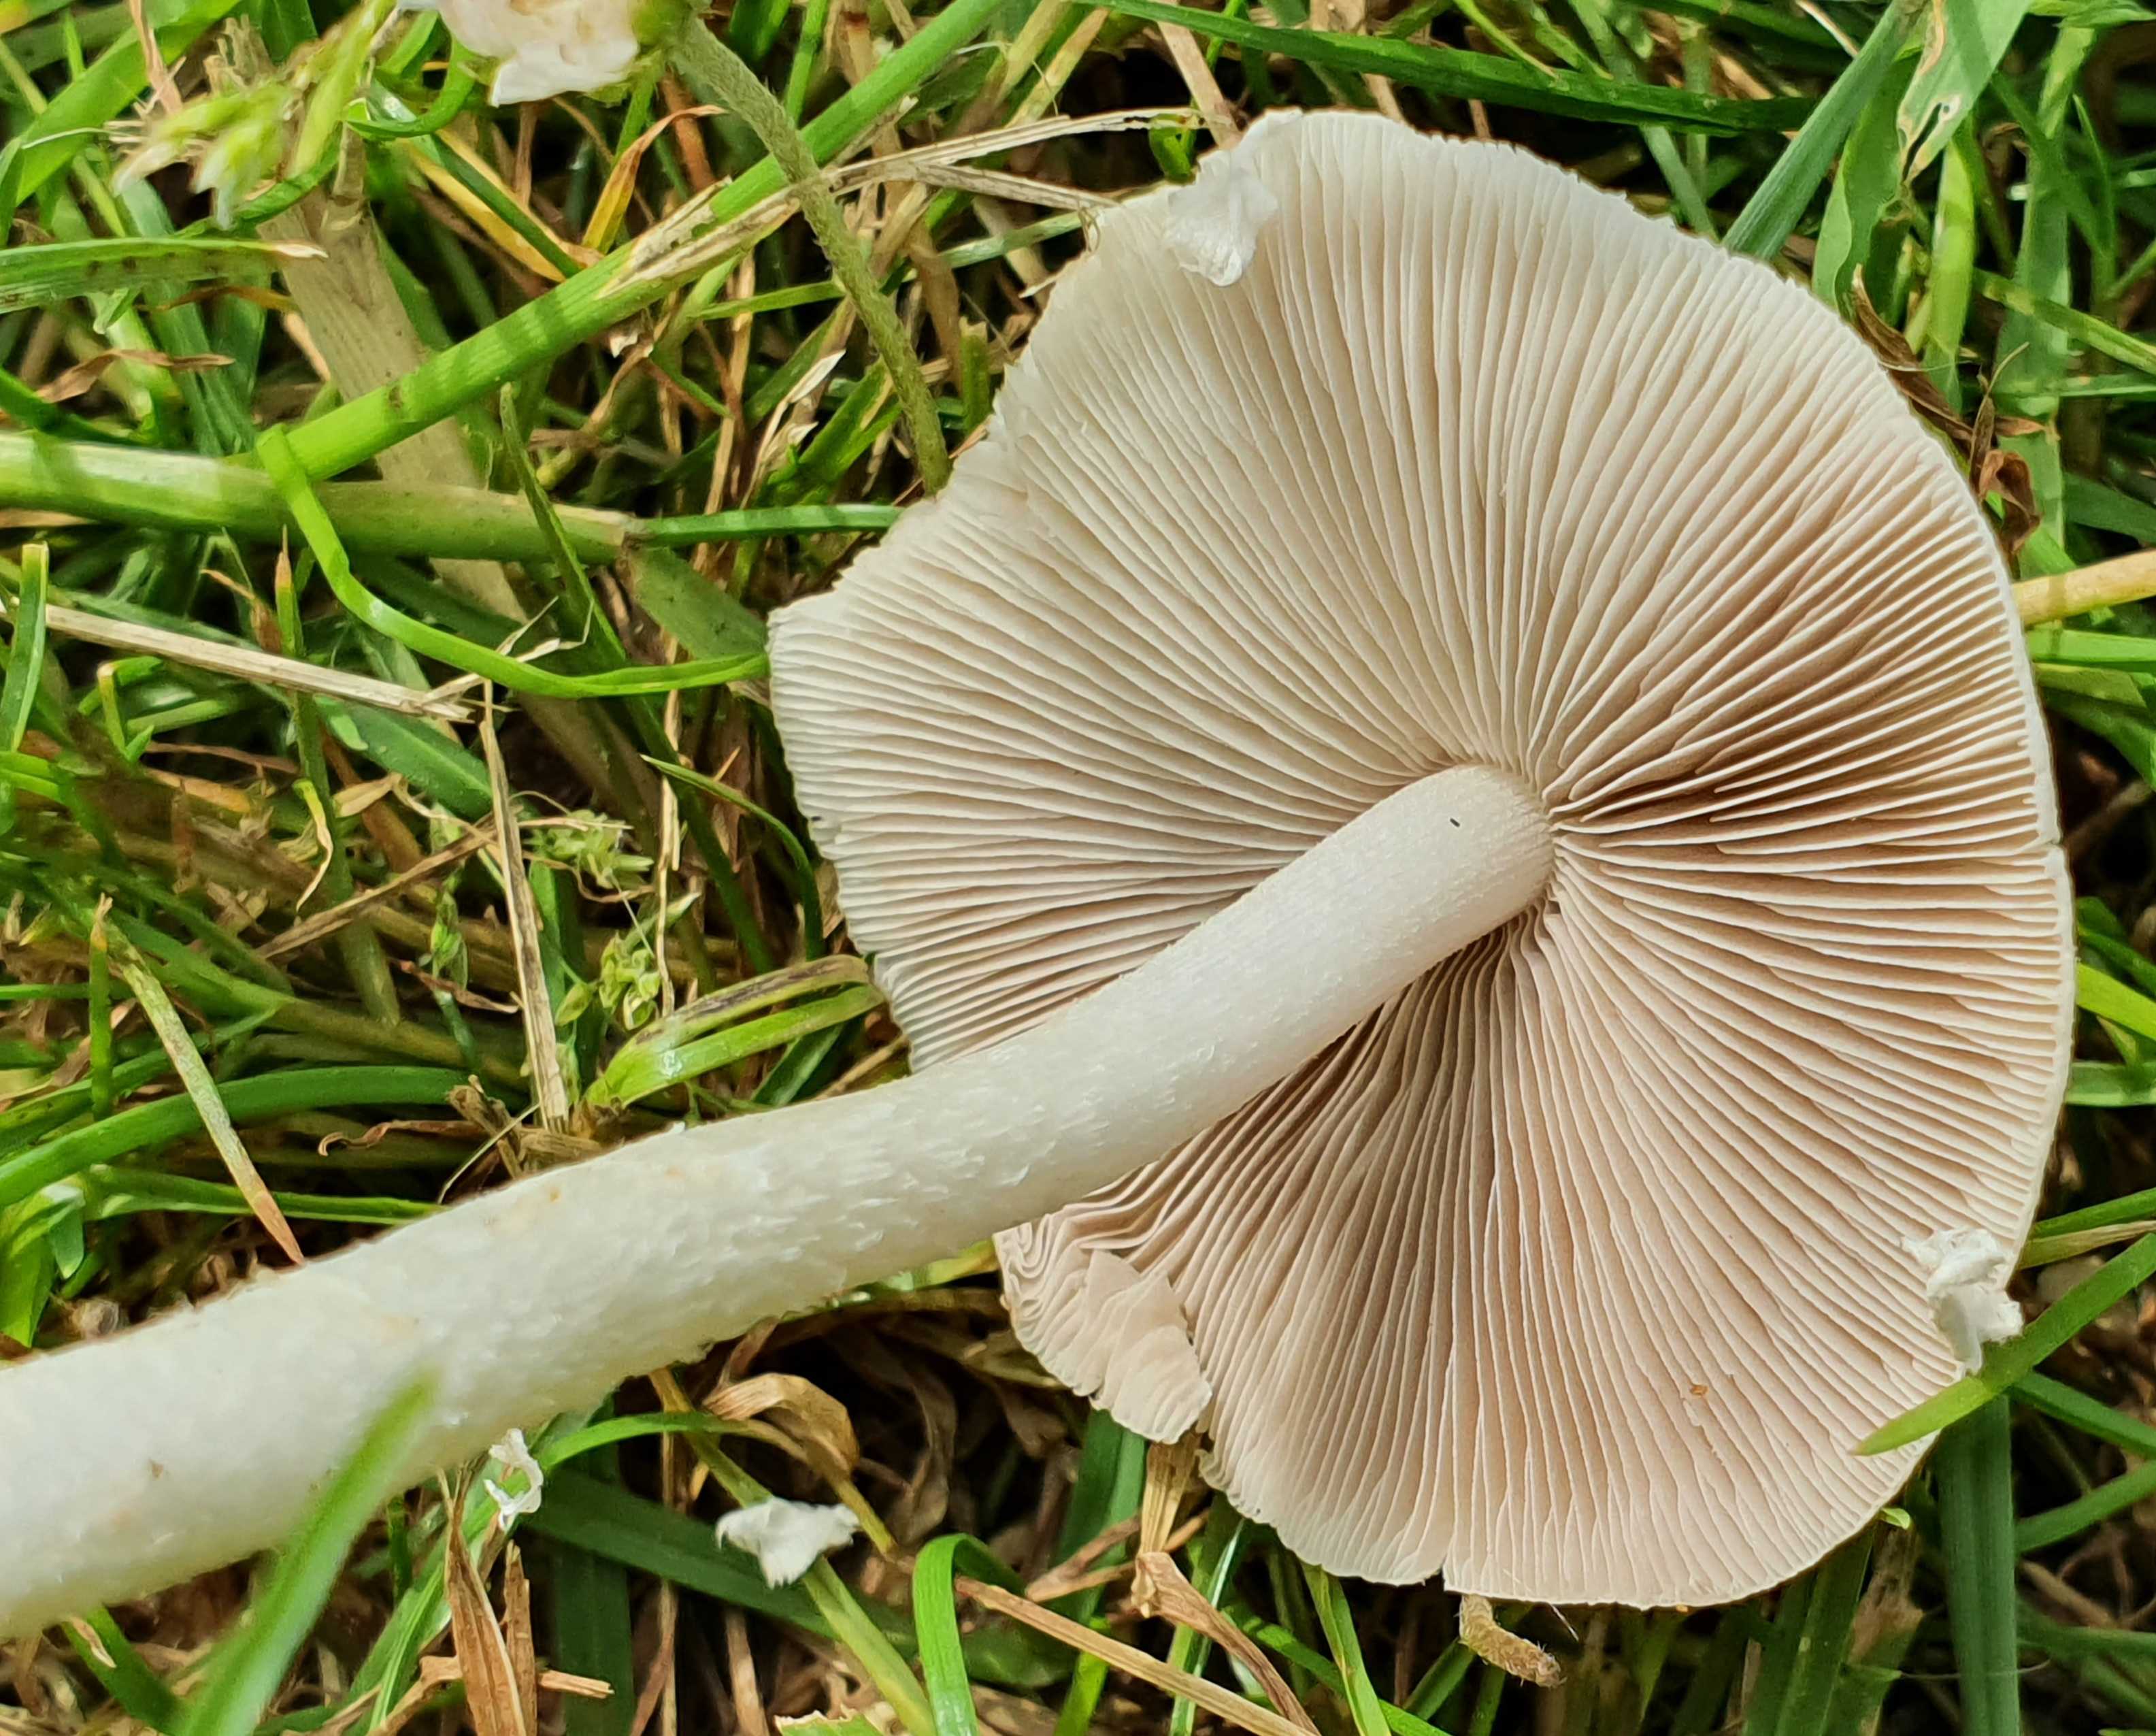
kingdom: Fungi
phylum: Basidiomycota
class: Agaricomycetes
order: Agaricales
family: Psathyrellaceae
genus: Candolleomyces
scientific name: Candolleomyces candolleanus
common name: Candolles mørkhat
